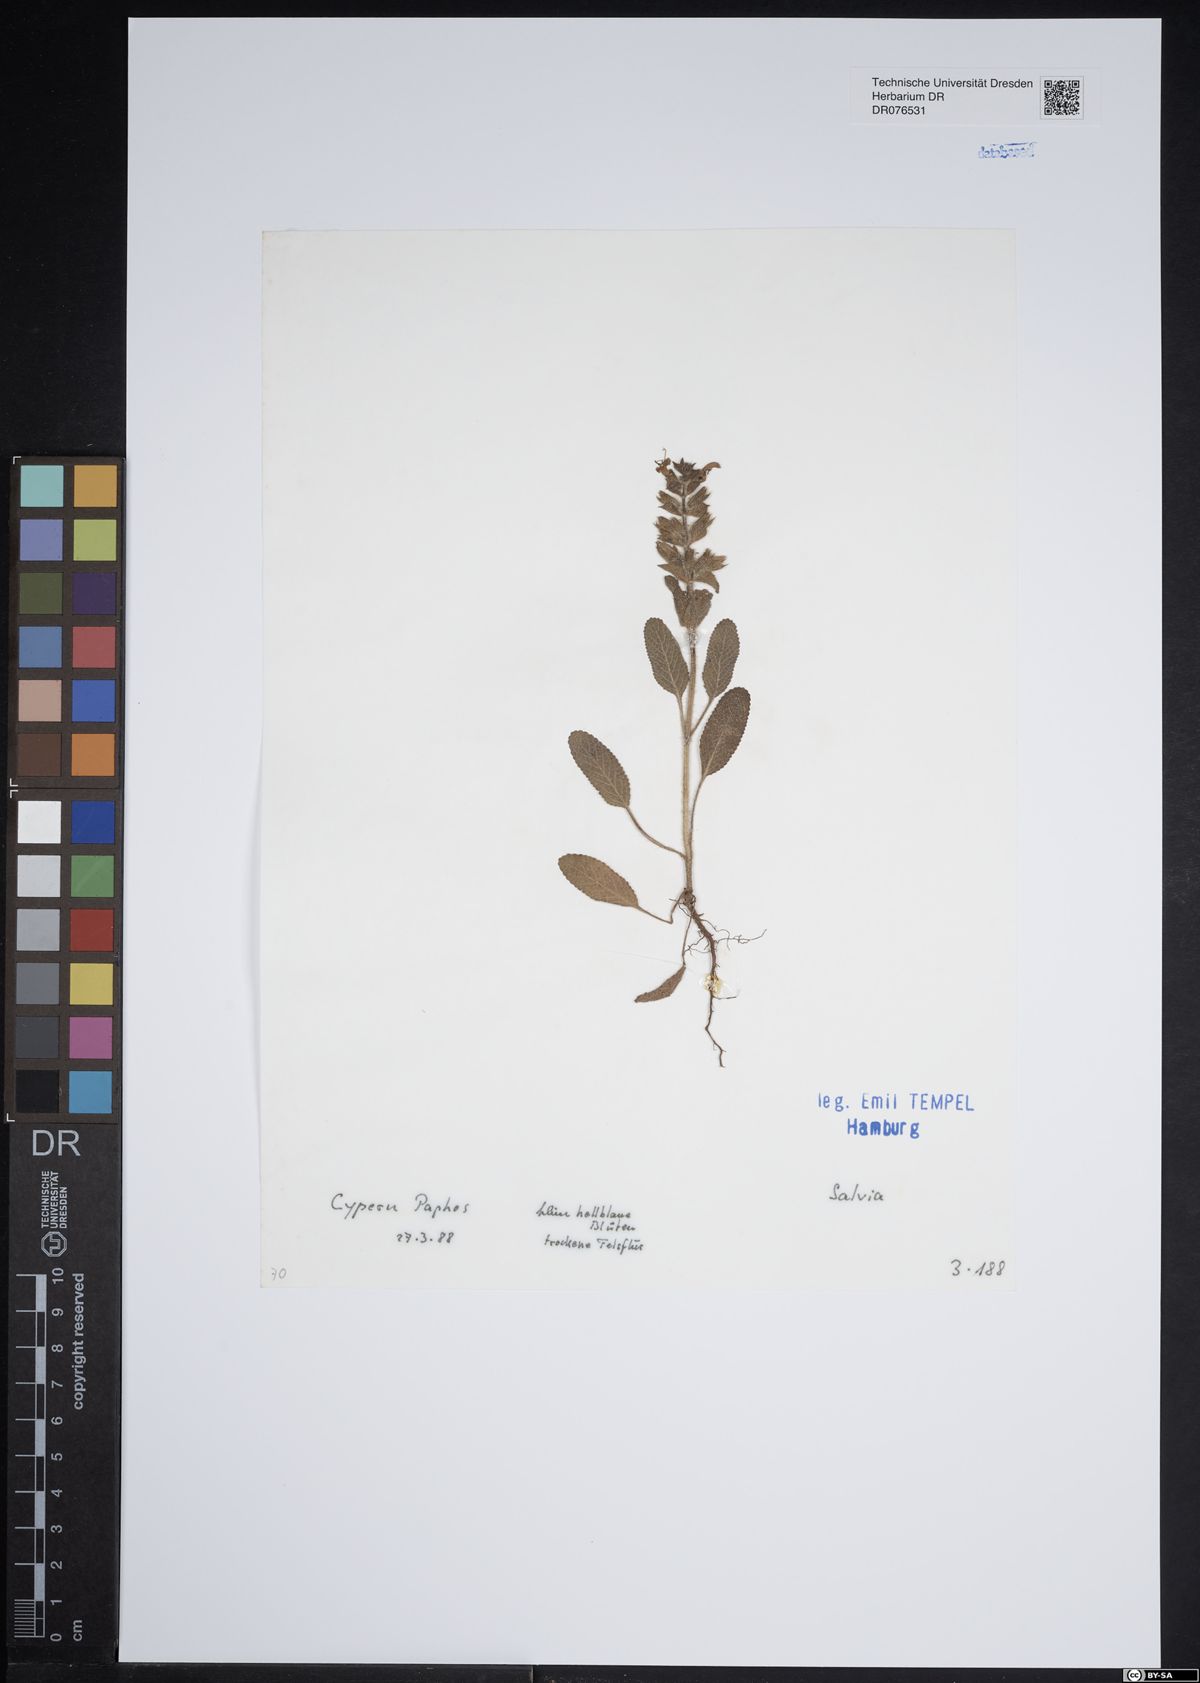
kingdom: Plantae
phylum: Tracheophyta
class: Magnoliopsida
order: Lamiales
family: Lamiaceae
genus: Salvia
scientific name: Salvia
